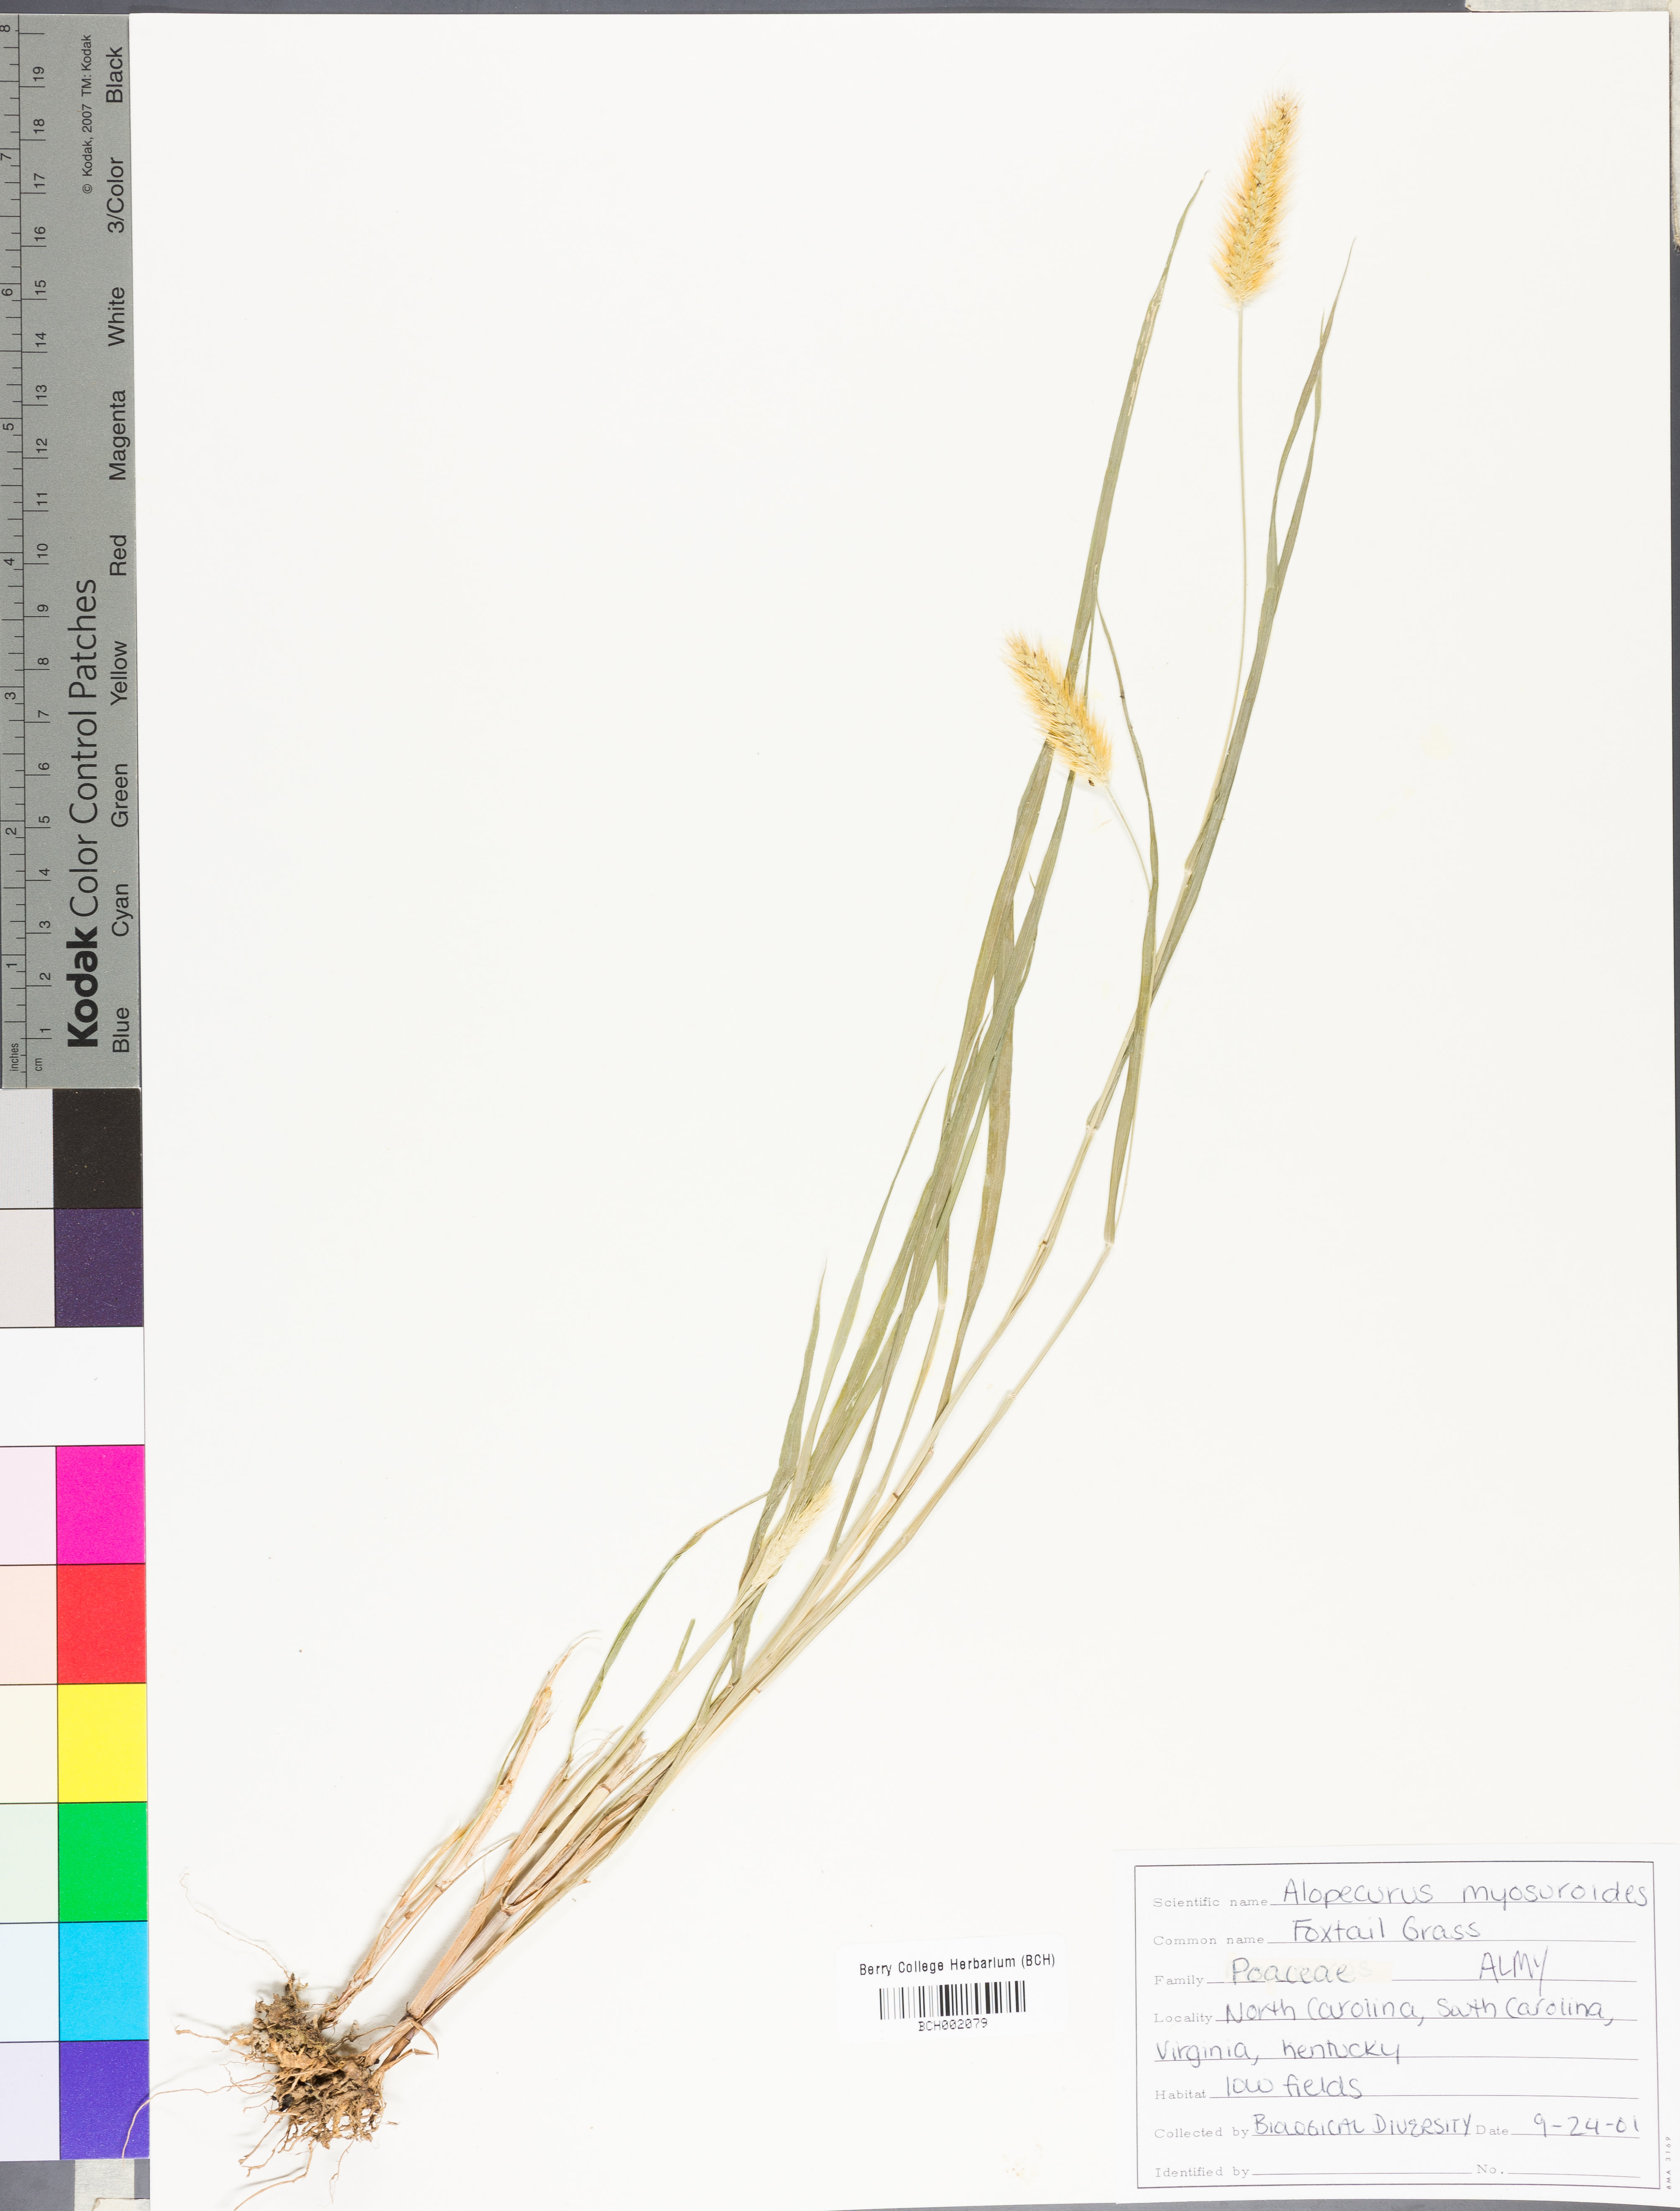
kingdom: Plantae
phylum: Tracheophyta
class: Liliopsida
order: Poales
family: Poaceae
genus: Alopecurus
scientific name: Alopecurus myosuroides
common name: Black-grass
